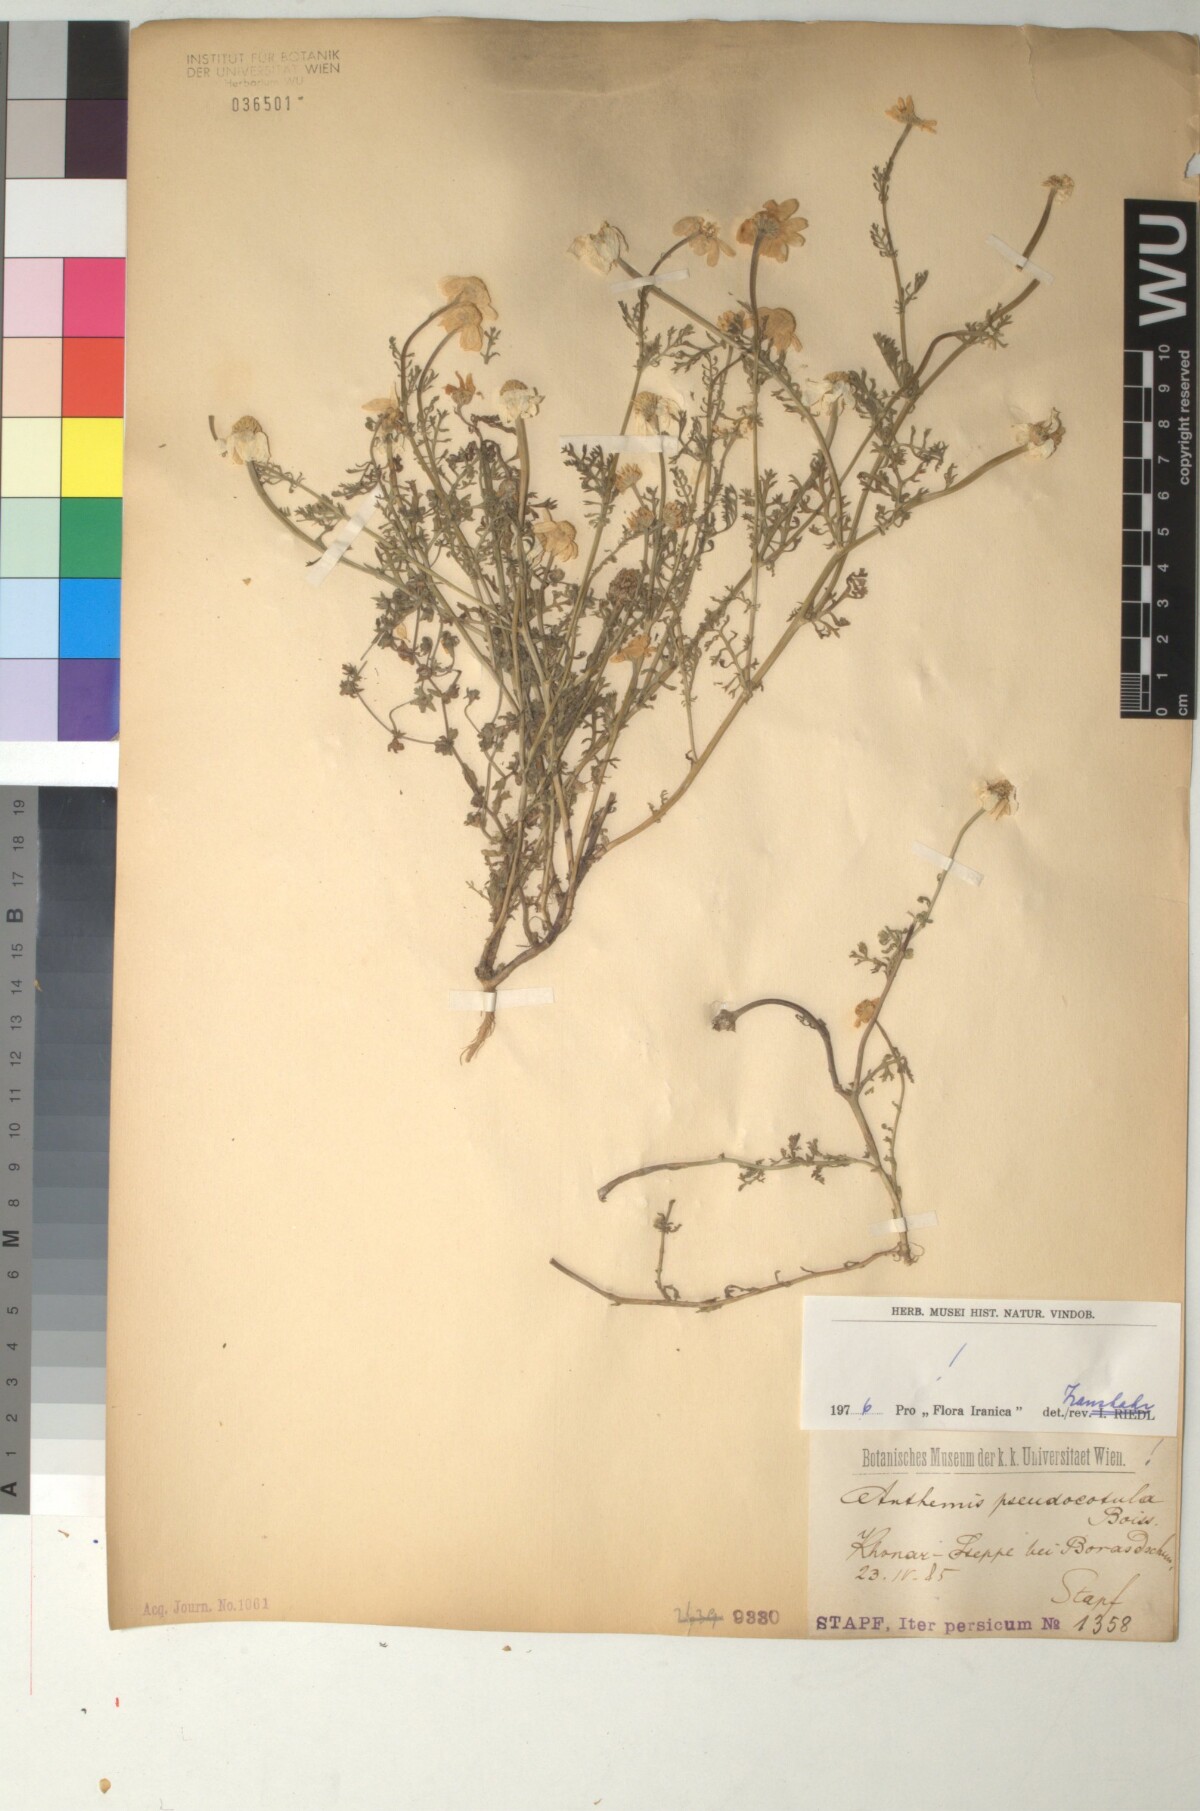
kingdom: Plantae
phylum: Tracheophyta
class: Magnoliopsida
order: Asterales
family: Asteraceae
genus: Anthemis
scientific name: Anthemis pseudocotula
